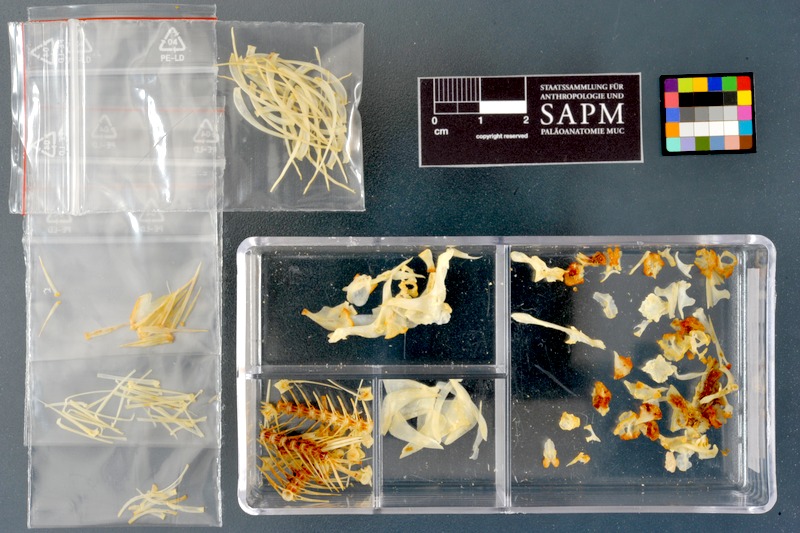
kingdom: Animalia
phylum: Chordata
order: Cypriniformes
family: Cyprinidae
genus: Acanthobrama
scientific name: Acanthobrama marmid
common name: Mesopotamian bream
